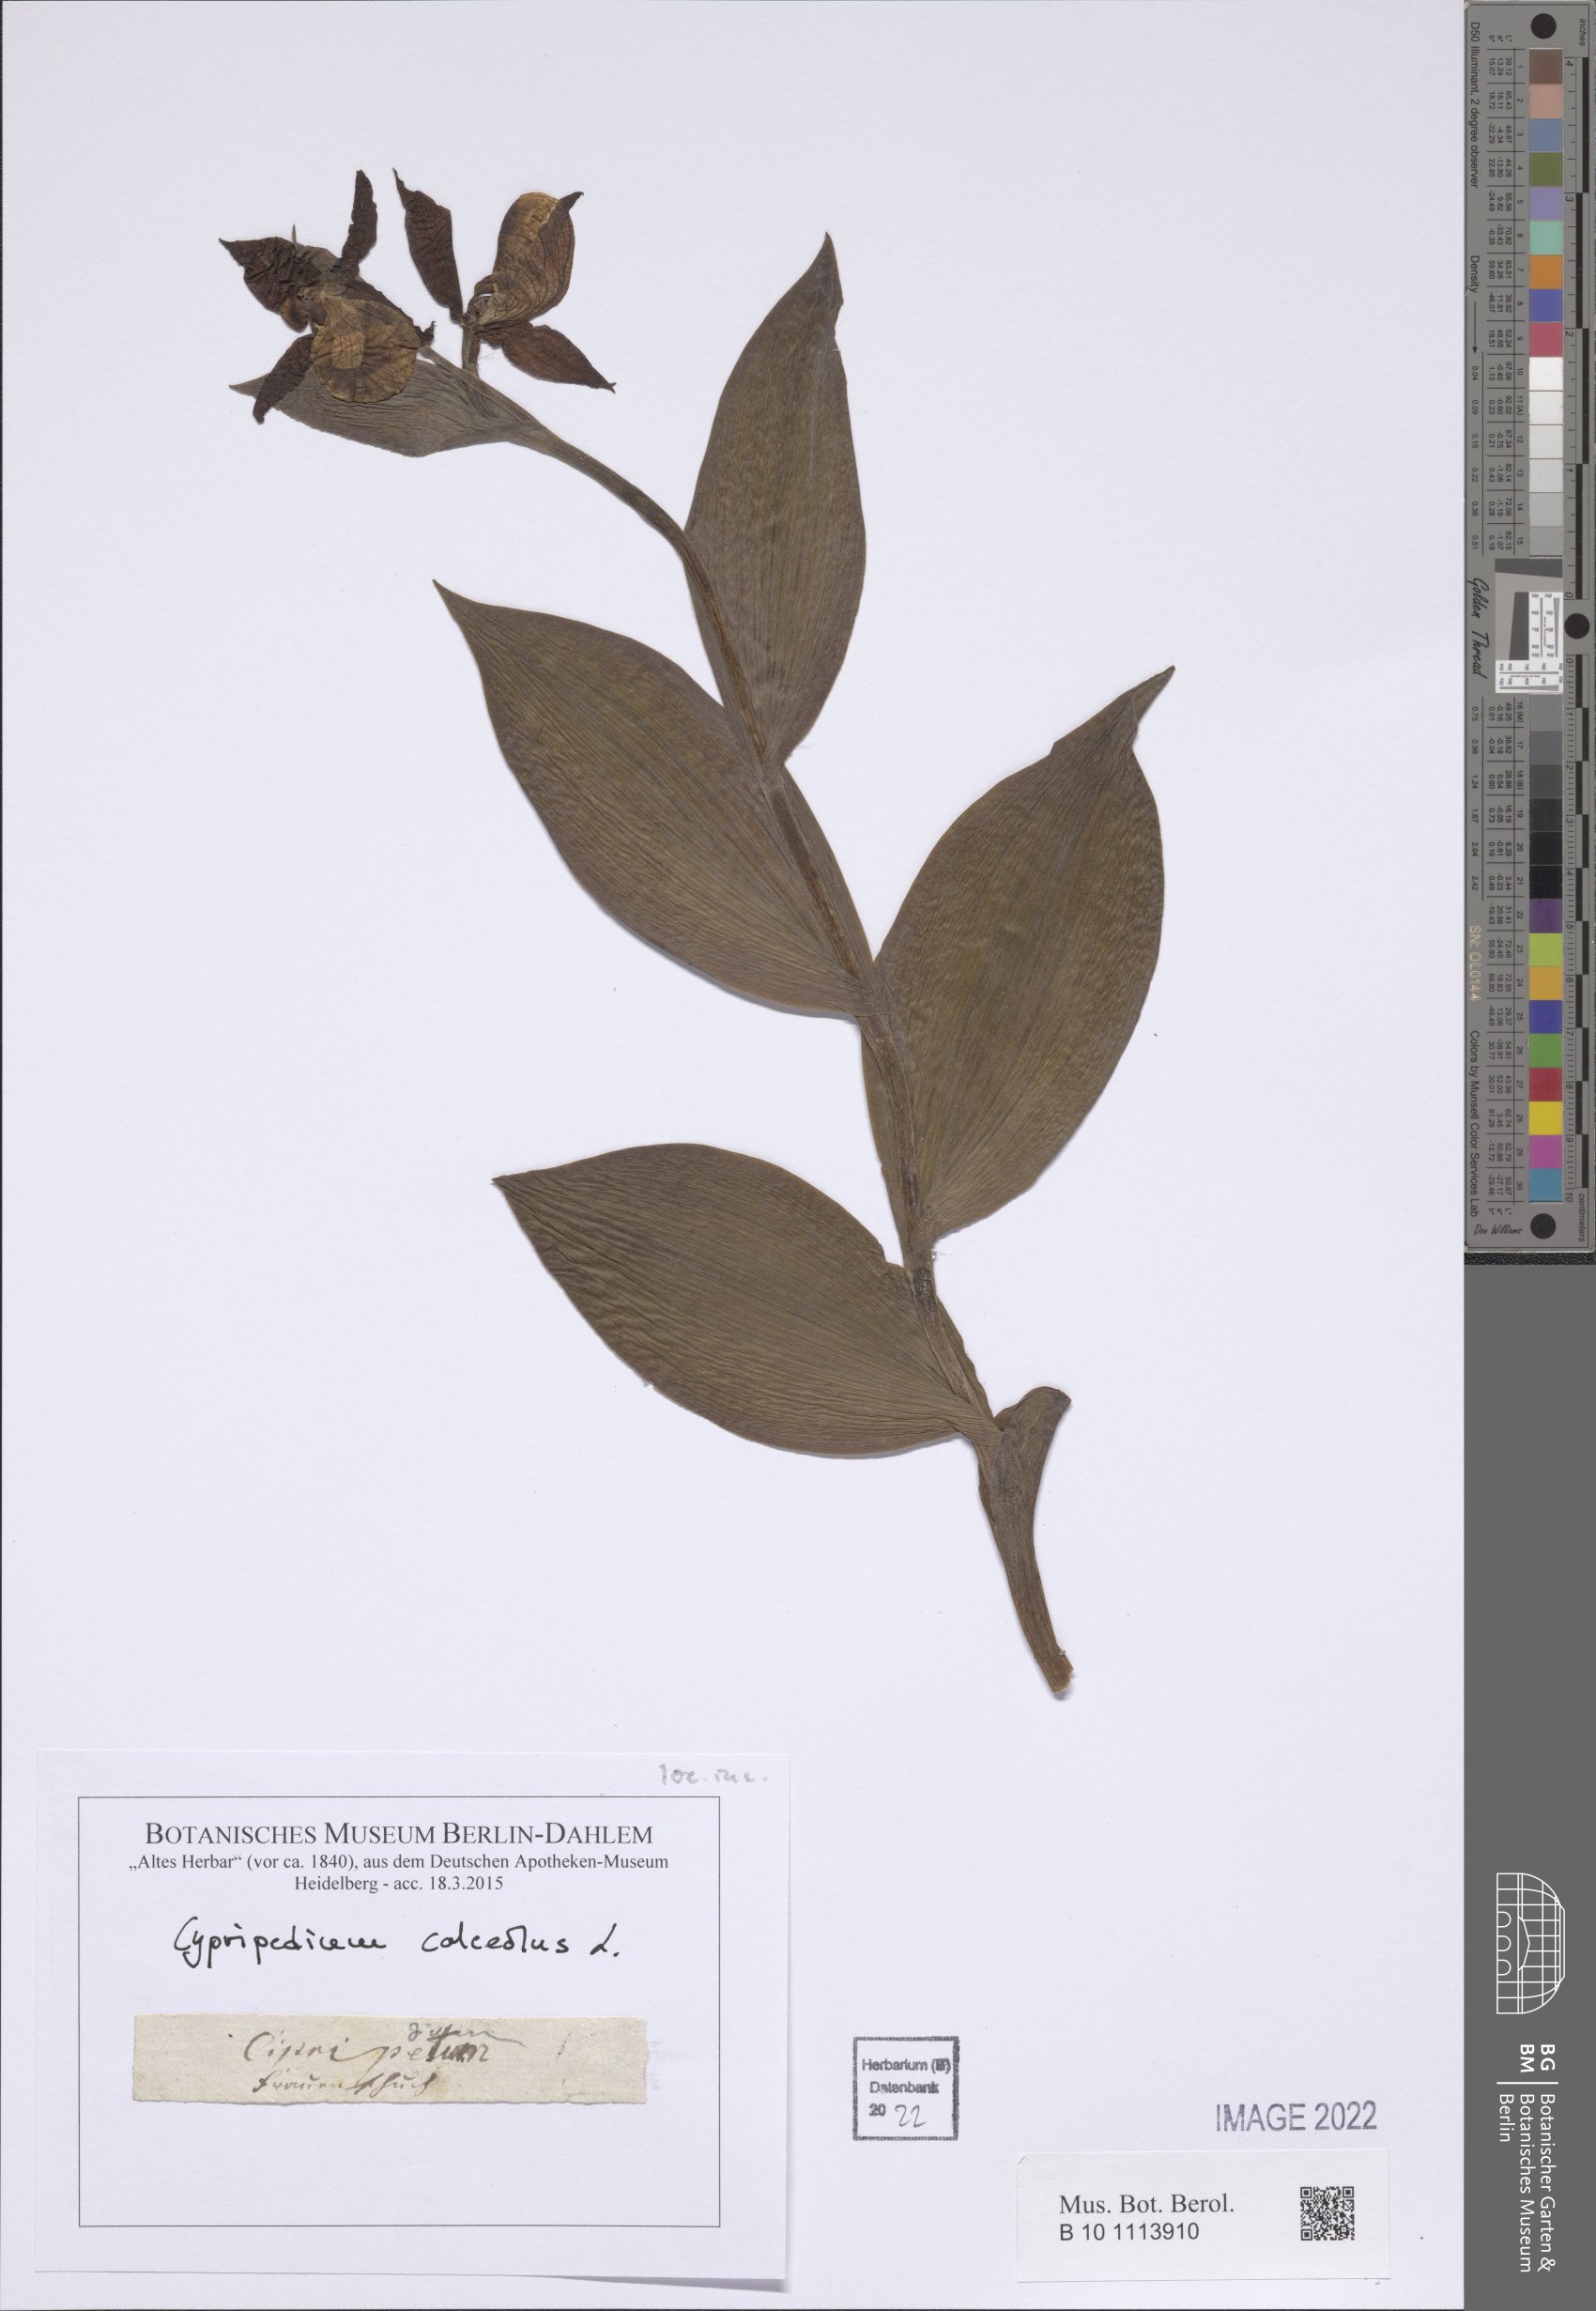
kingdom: Plantae
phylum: Tracheophyta
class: Liliopsida
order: Asparagales
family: Orchidaceae
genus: Cypripedium
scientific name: Cypripedium calceolus
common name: Lady's-slipper
